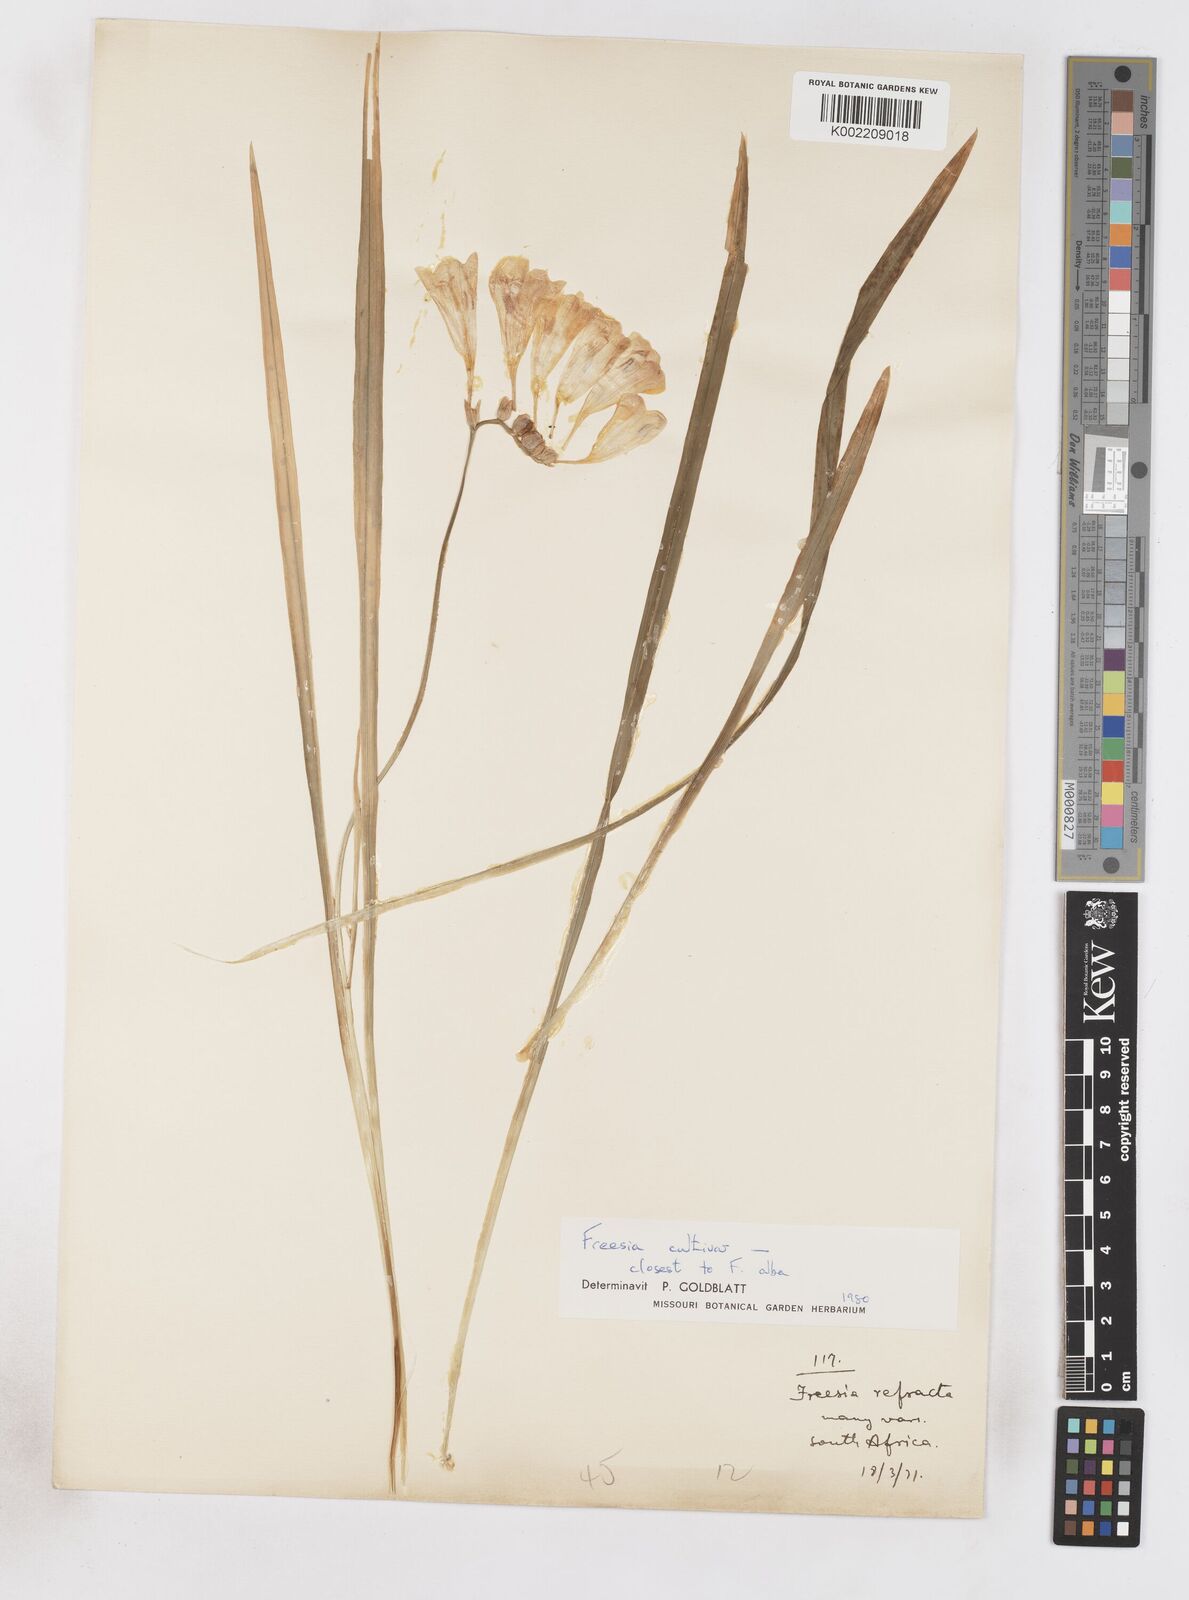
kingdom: Plantae
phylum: Tracheophyta
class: Liliopsida
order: Asparagales
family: Iridaceae
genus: Freesia
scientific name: Freesia refracta
